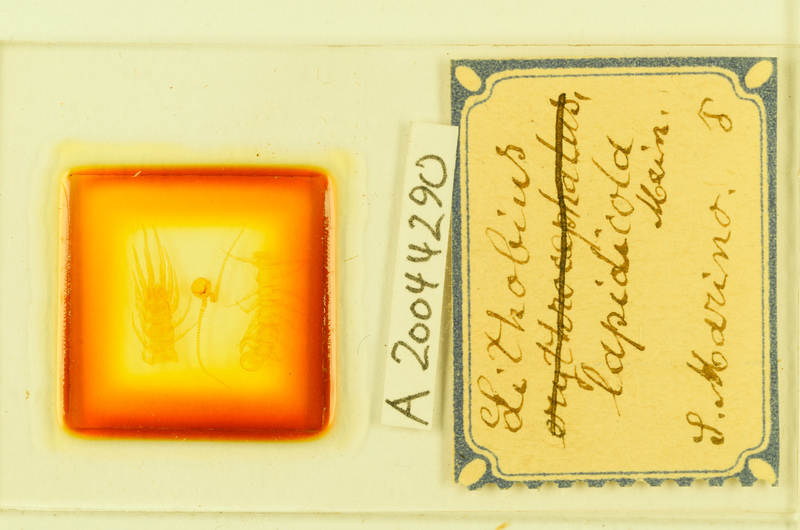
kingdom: Animalia
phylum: Arthropoda
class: Chilopoda
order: Lithobiomorpha
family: Lithobiidae
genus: Lithobius
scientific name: Lithobius lapidicola
